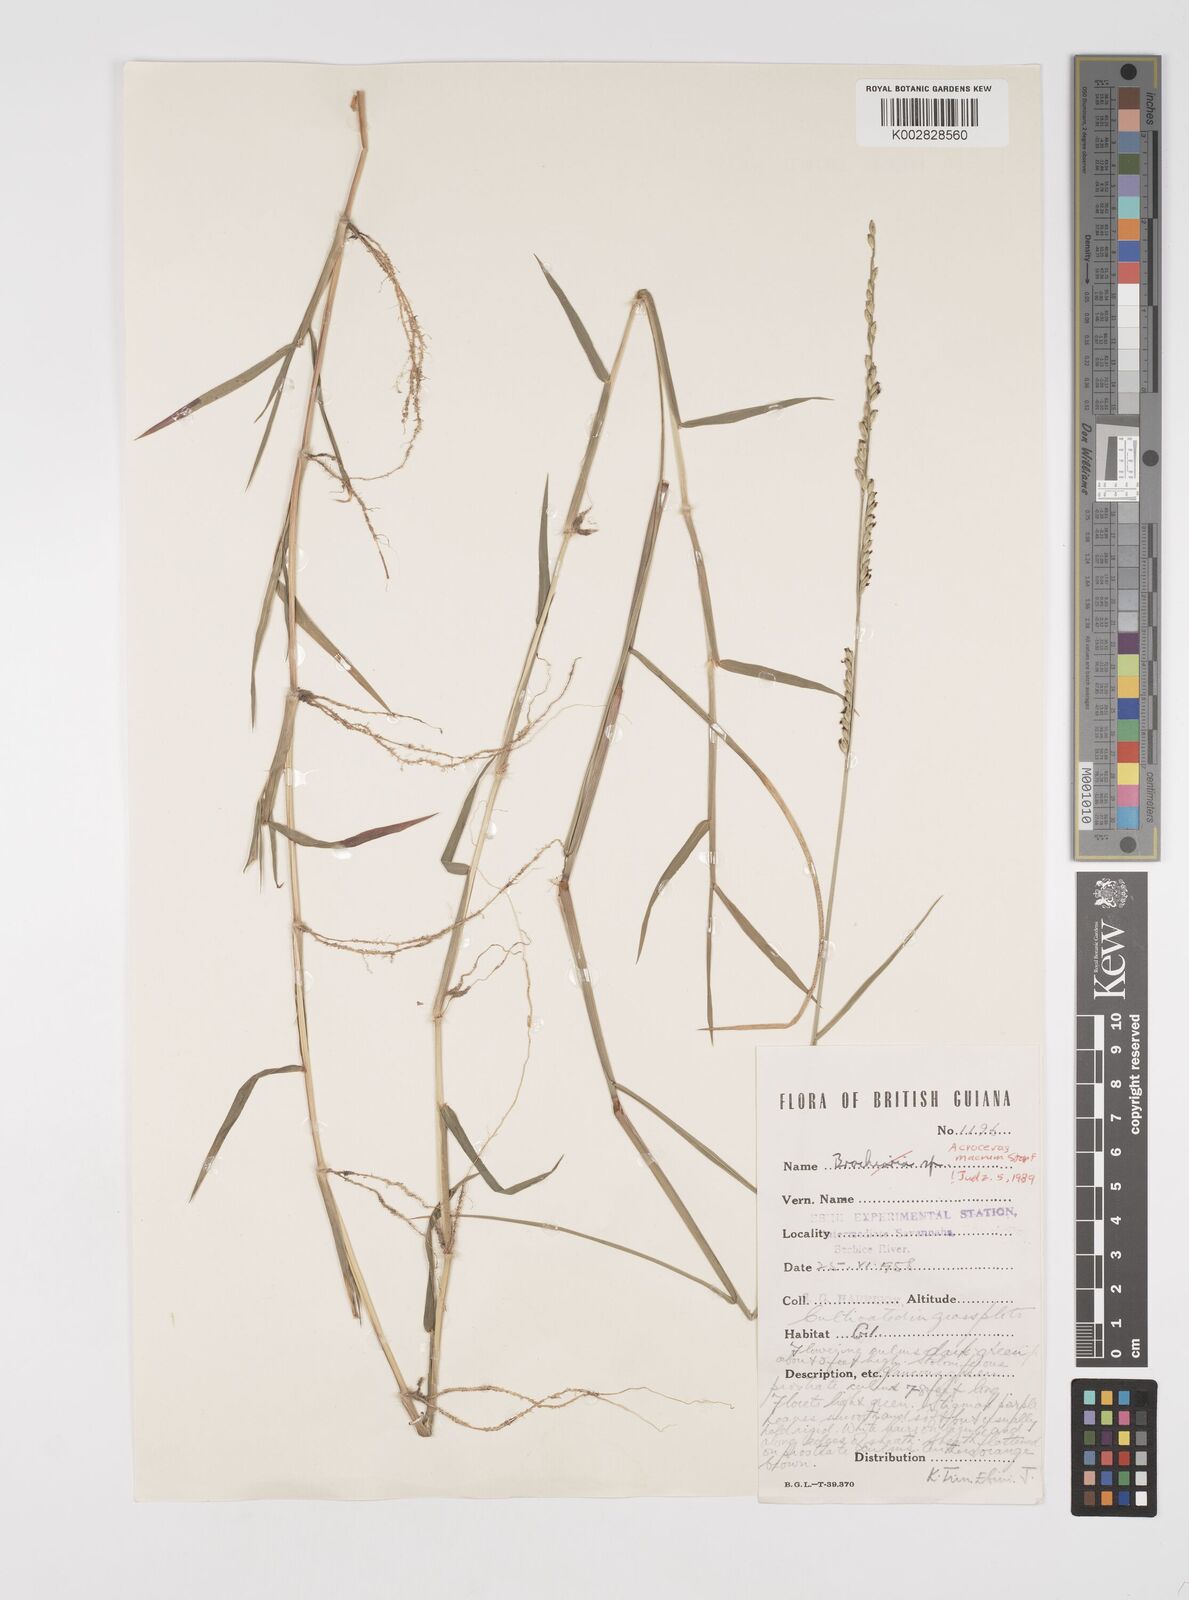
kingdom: Plantae
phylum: Tracheophyta
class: Liliopsida
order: Poales
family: Poaceae
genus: Acroceras
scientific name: Acroceras macrum
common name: Nyl grass
